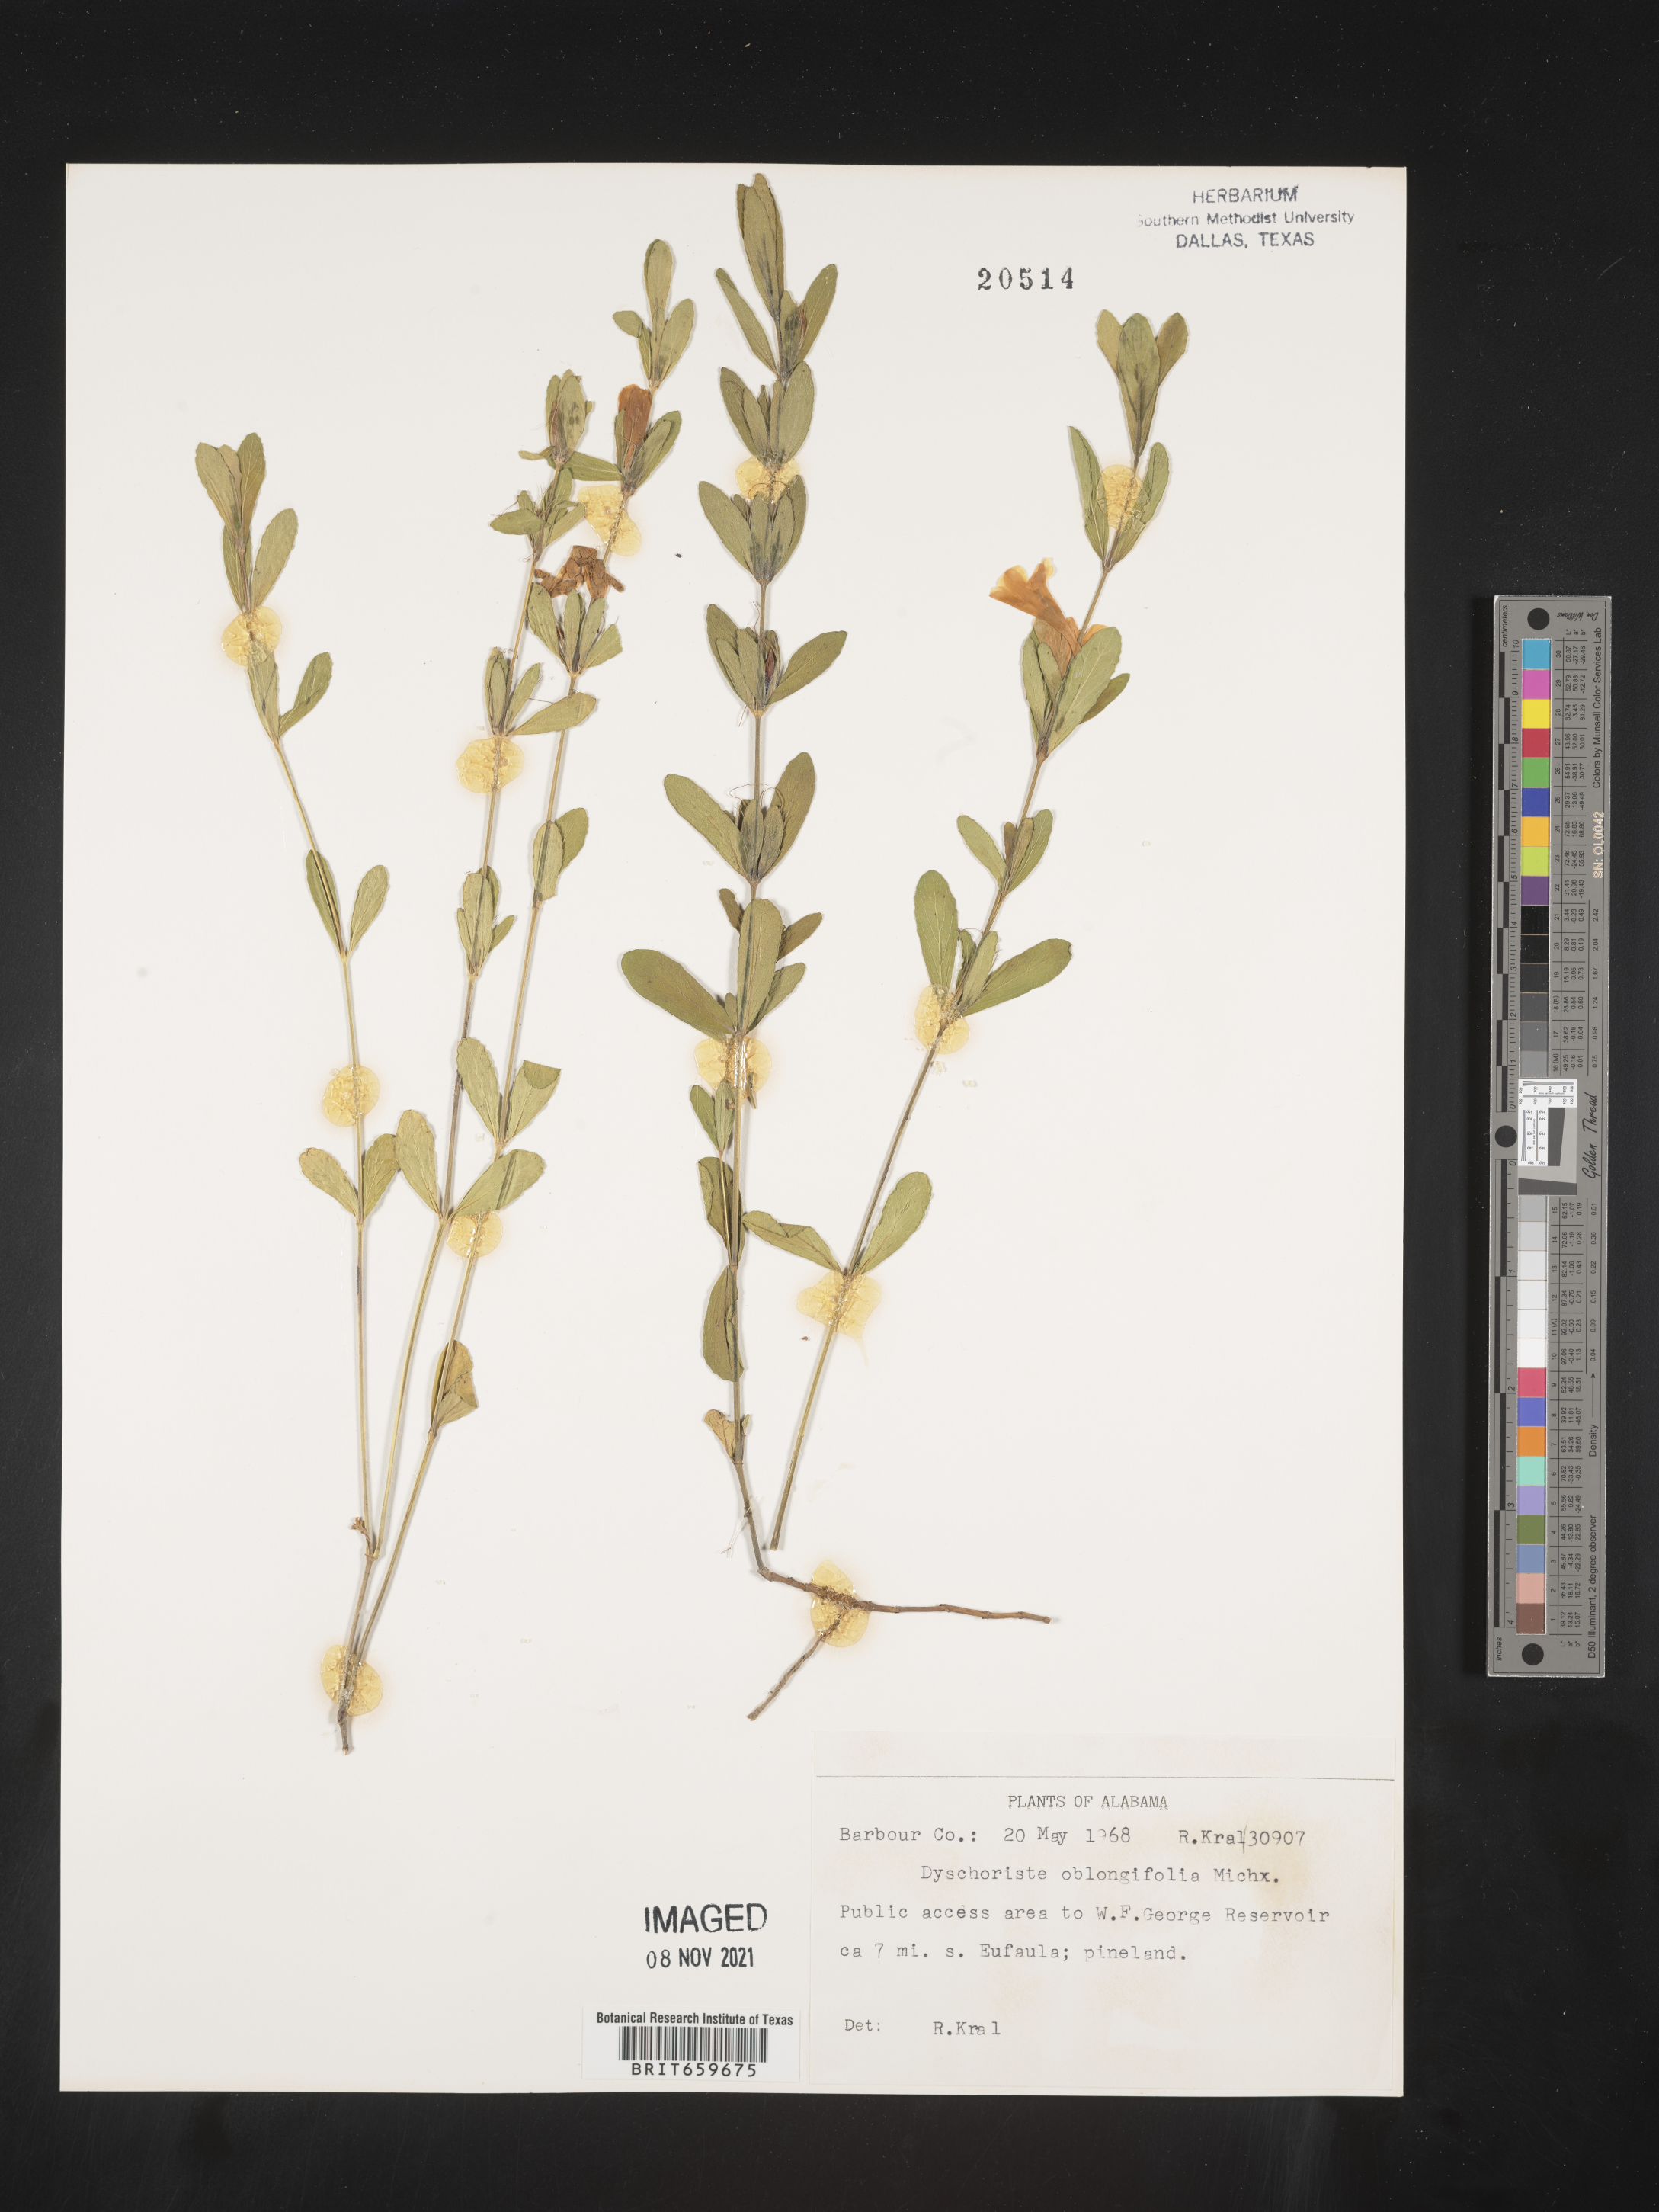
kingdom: Plantae
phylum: Tracheophyta
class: Magnoliopsida
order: Lamiales
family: Acanthaceae
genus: Dyschoriste
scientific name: Dyschoriste oblongifolia
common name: Blue twinflower
